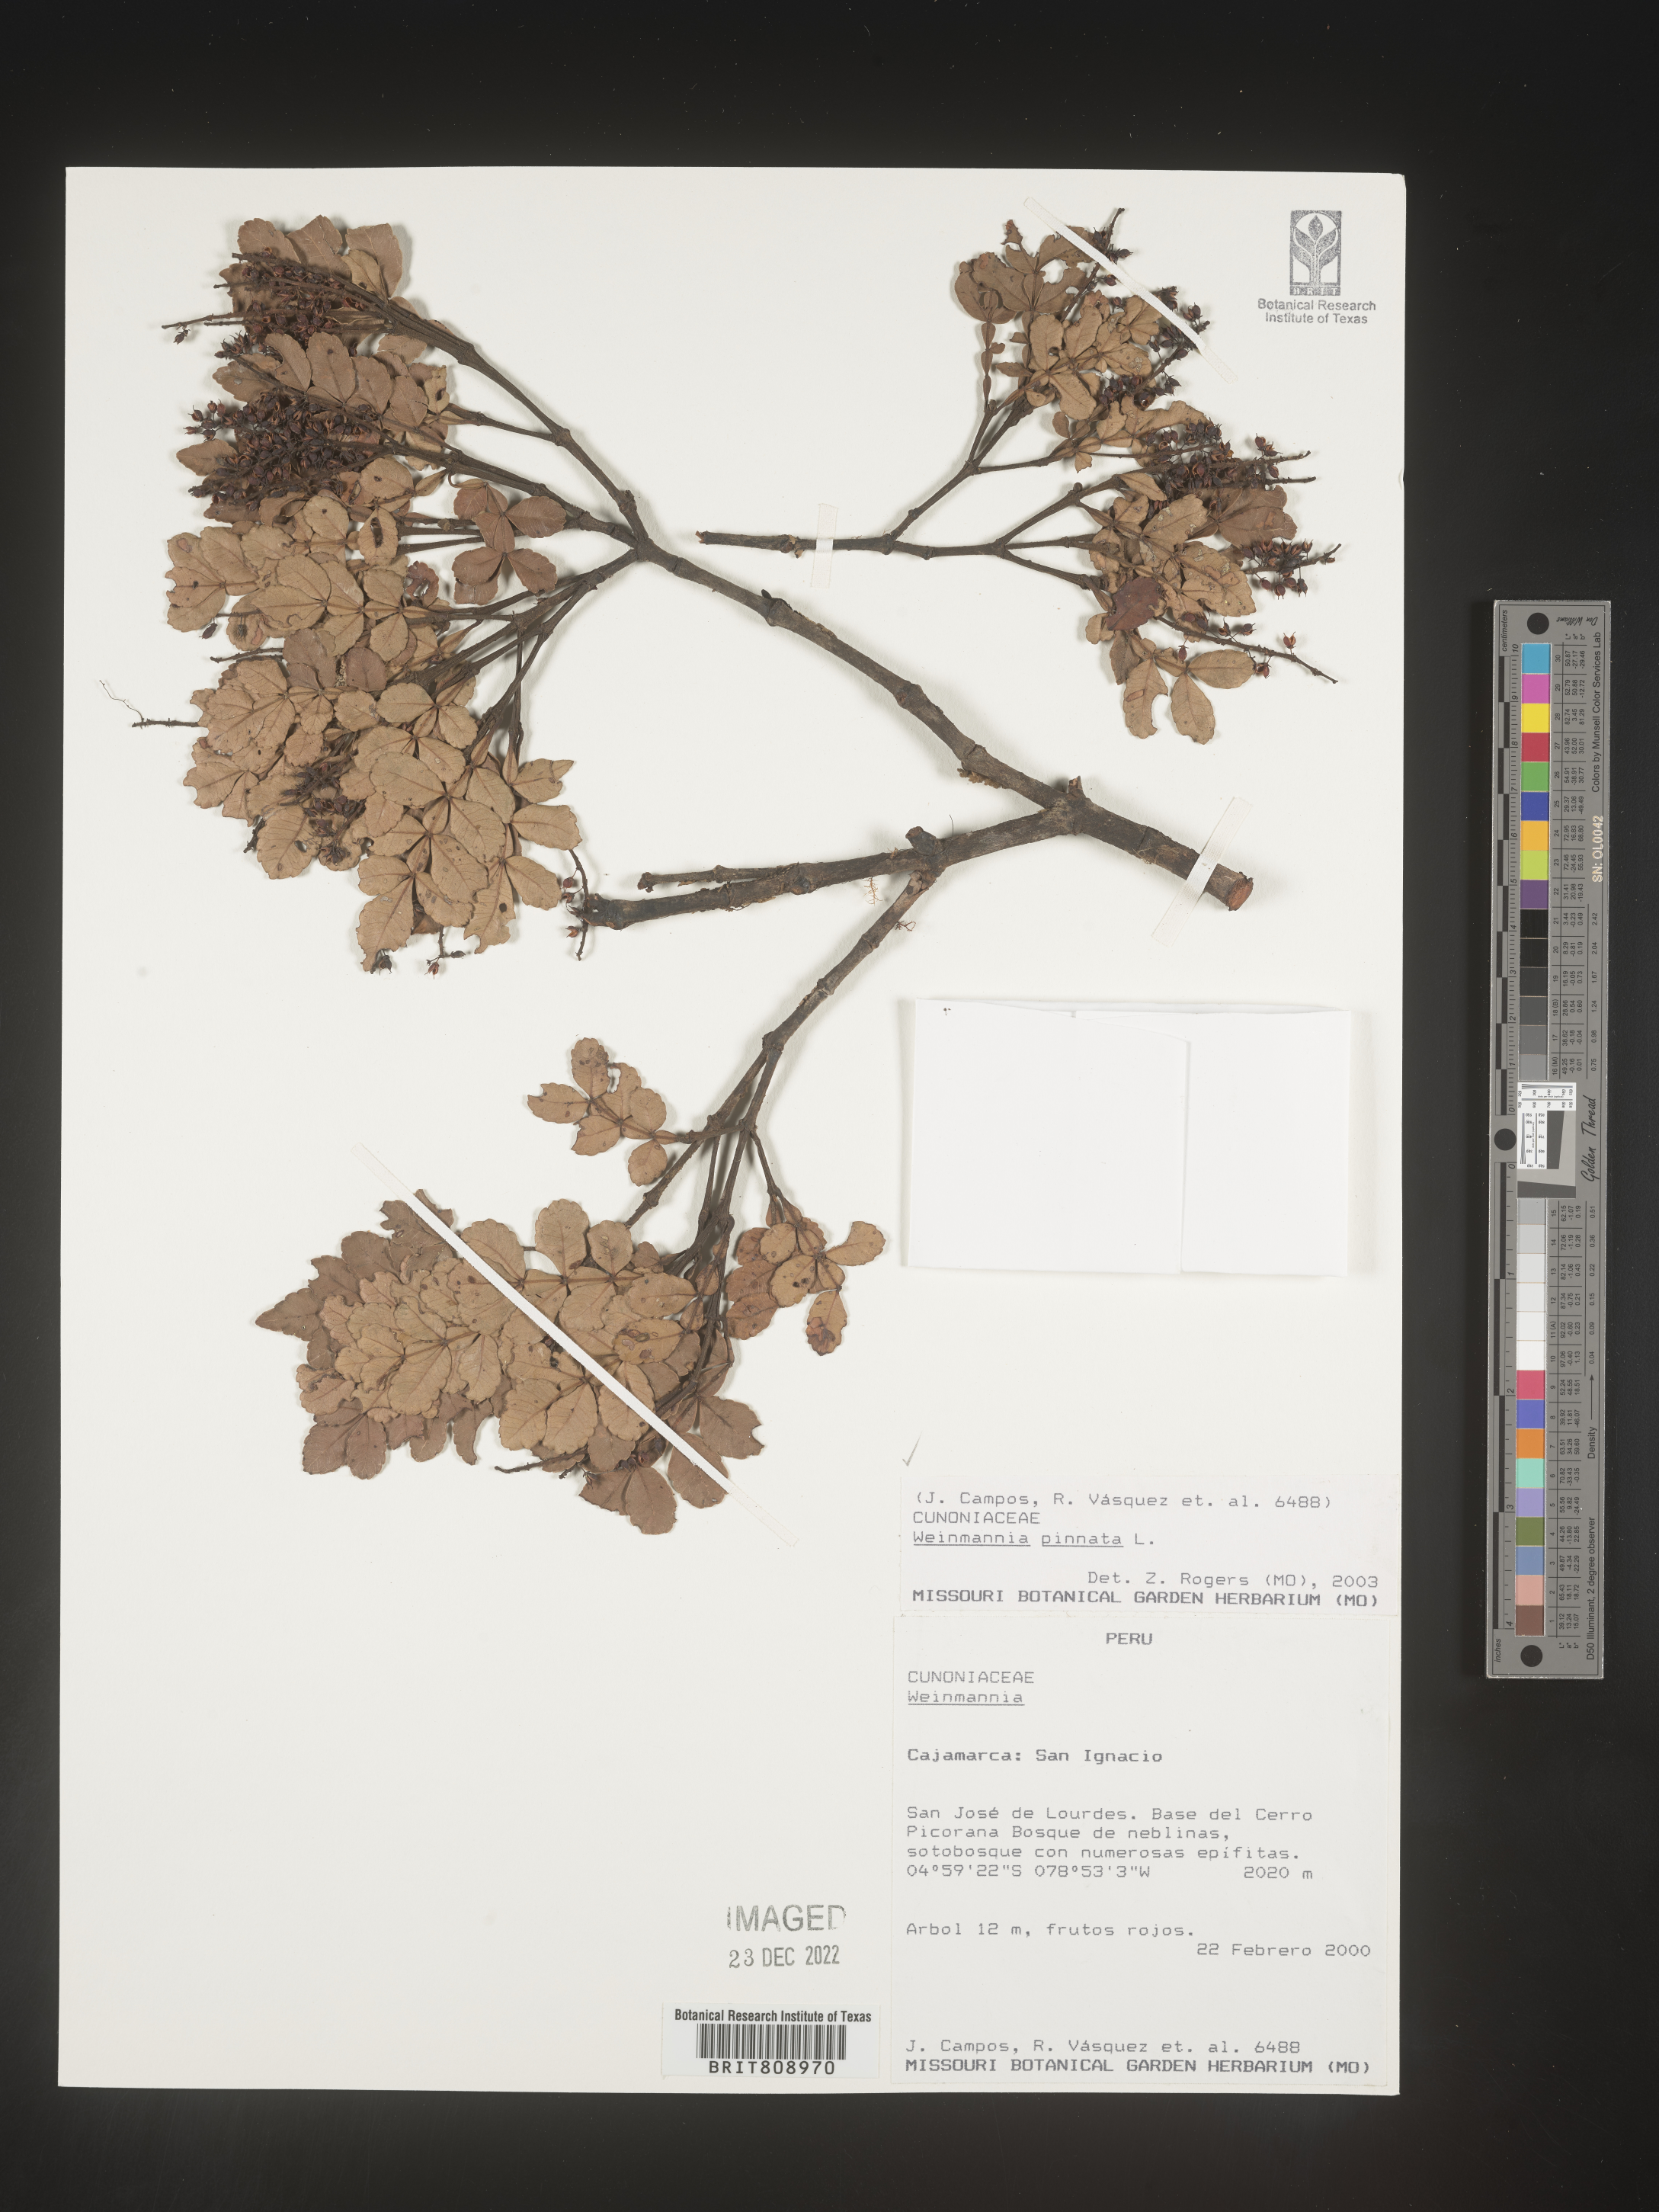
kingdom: Plantae
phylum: Tracheophyta
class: Magnoliopsida
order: Oxalidales
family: Cunoniaceae
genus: Weinmannia
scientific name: Weinmannia
